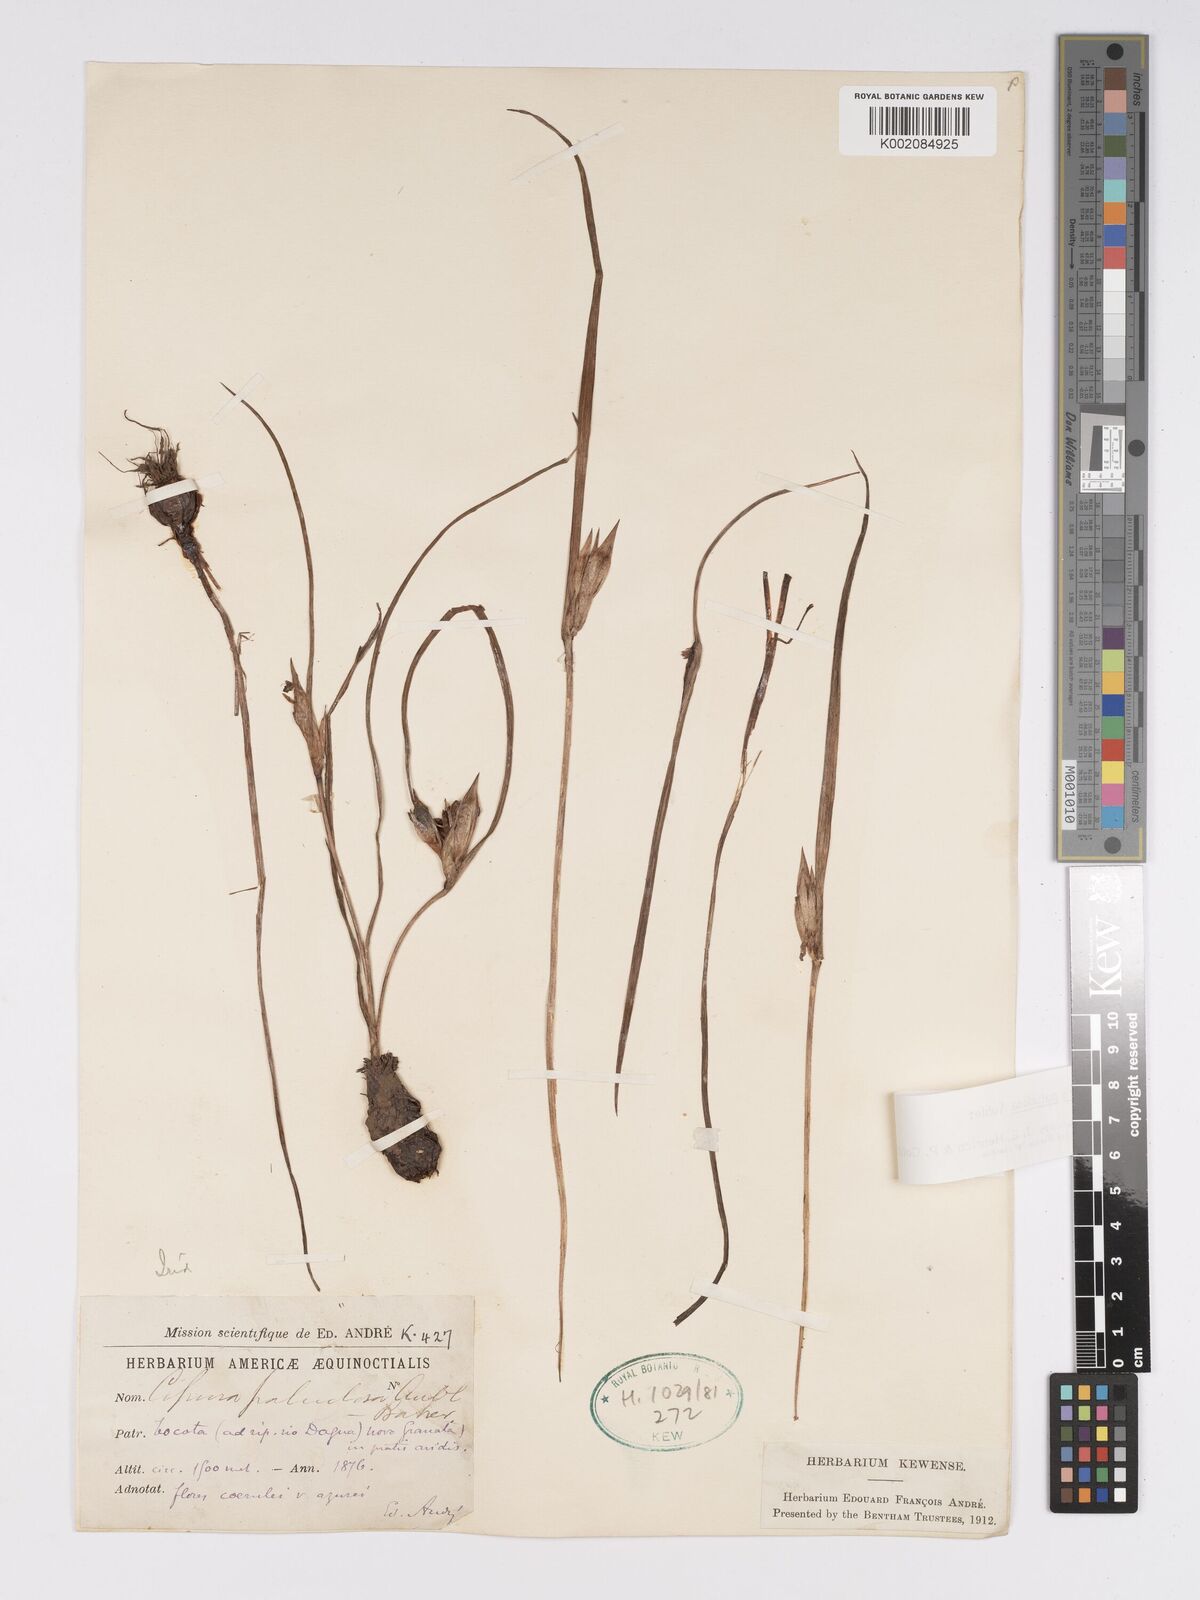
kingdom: Plantae
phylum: Tracheophyta
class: Liliopsida
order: Asparagales
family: Iridaceae
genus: Cipura
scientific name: Cipura paludosa
